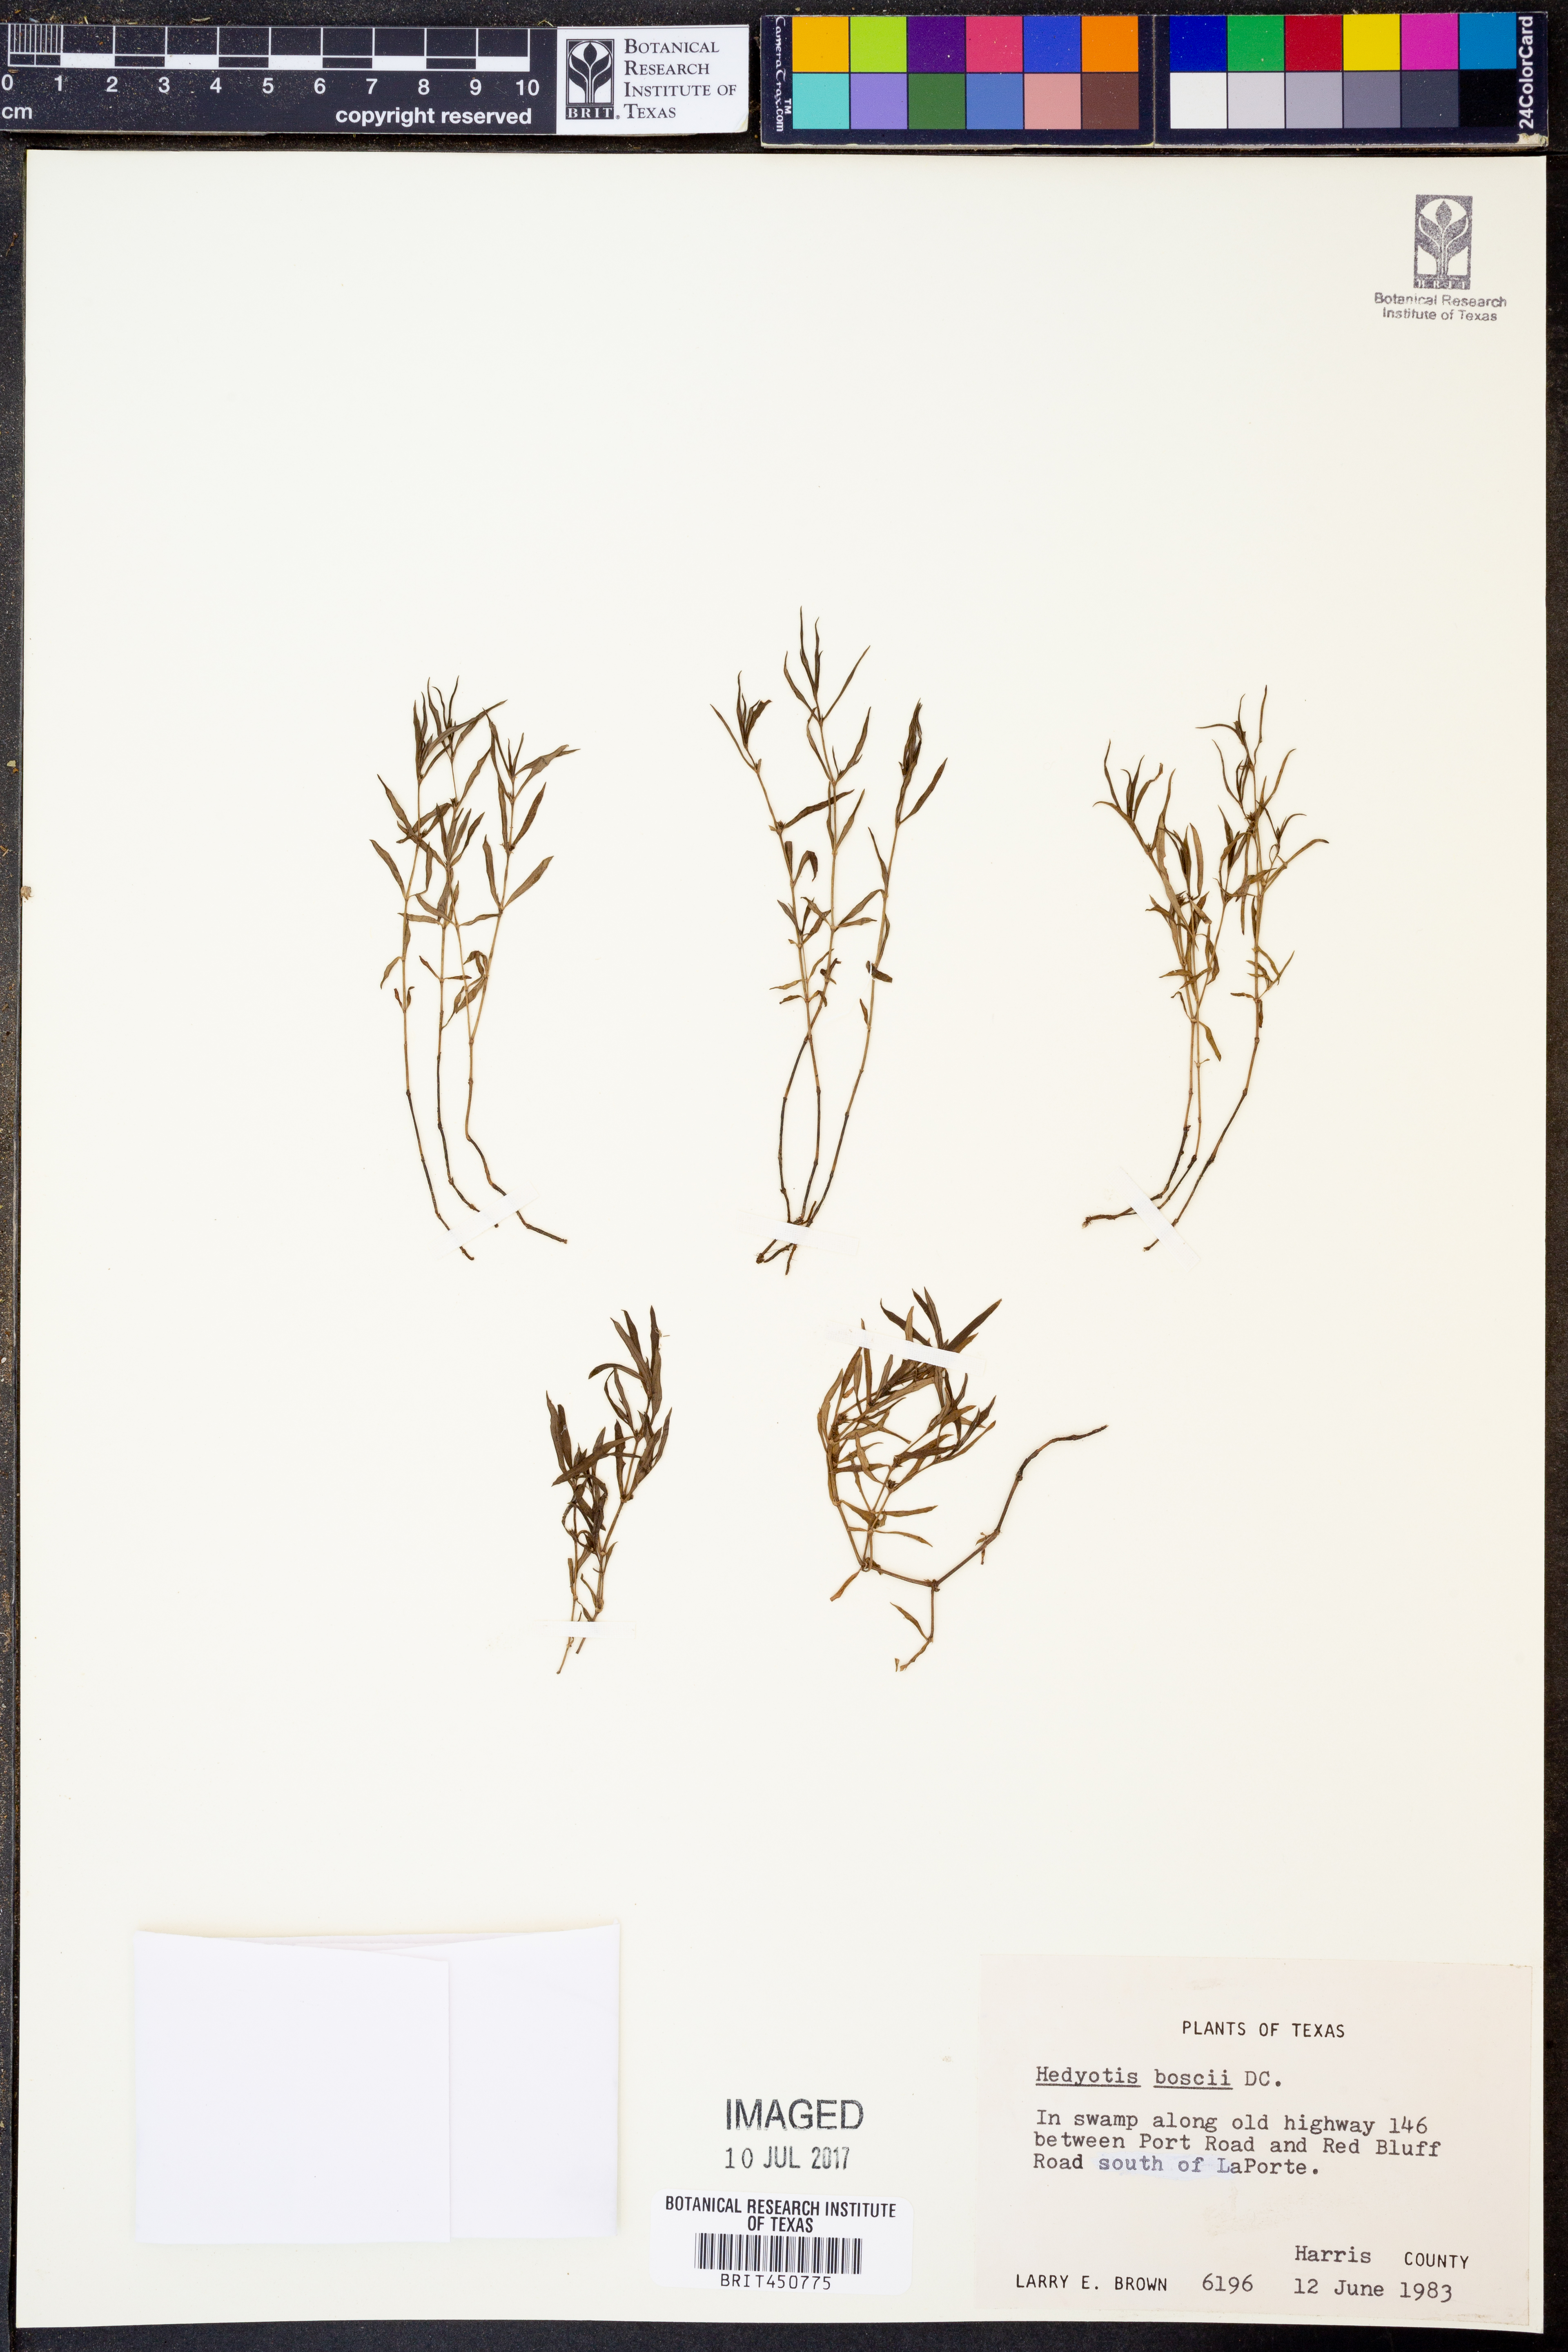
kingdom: Plantae
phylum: Tracheophyta
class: Magnoliopsida
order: Gentianales
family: Rubiaceae
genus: Oldenlandia
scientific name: Oldenlandia boscii
